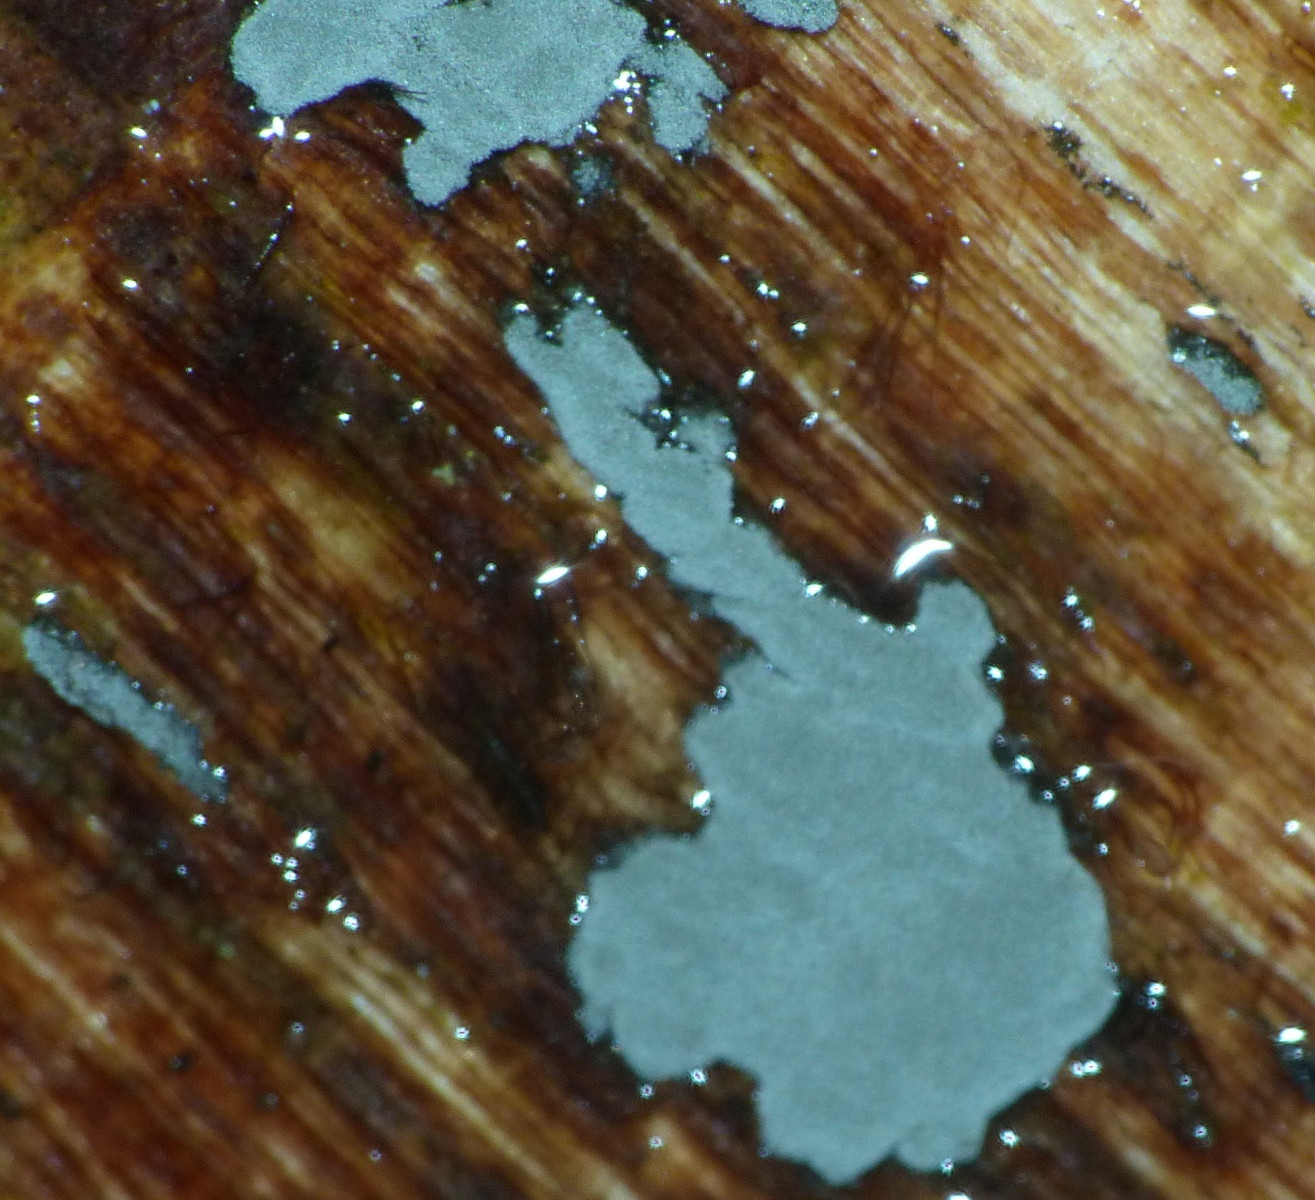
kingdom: Fungi
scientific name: Fungi
